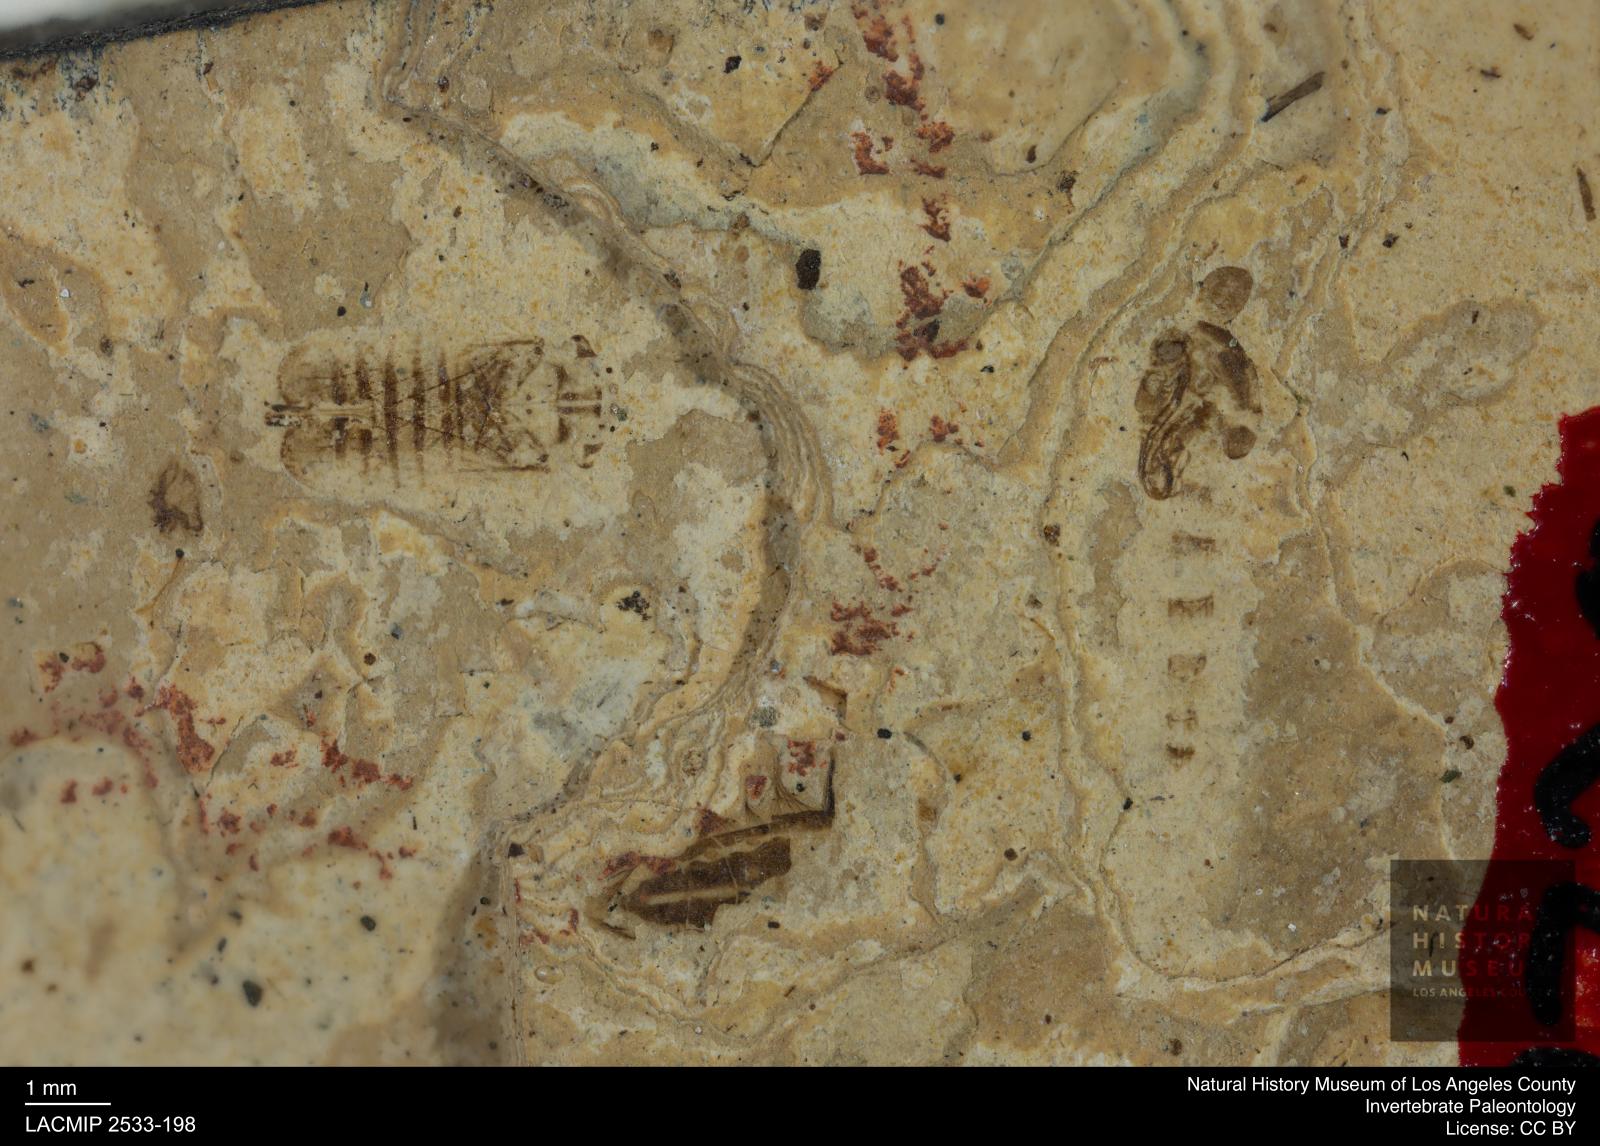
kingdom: Animalia
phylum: Arthropoda
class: Insecta
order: Hemiptera
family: Cicadellidae
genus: Thamnotettix
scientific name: Thamnotettix gracilentus
